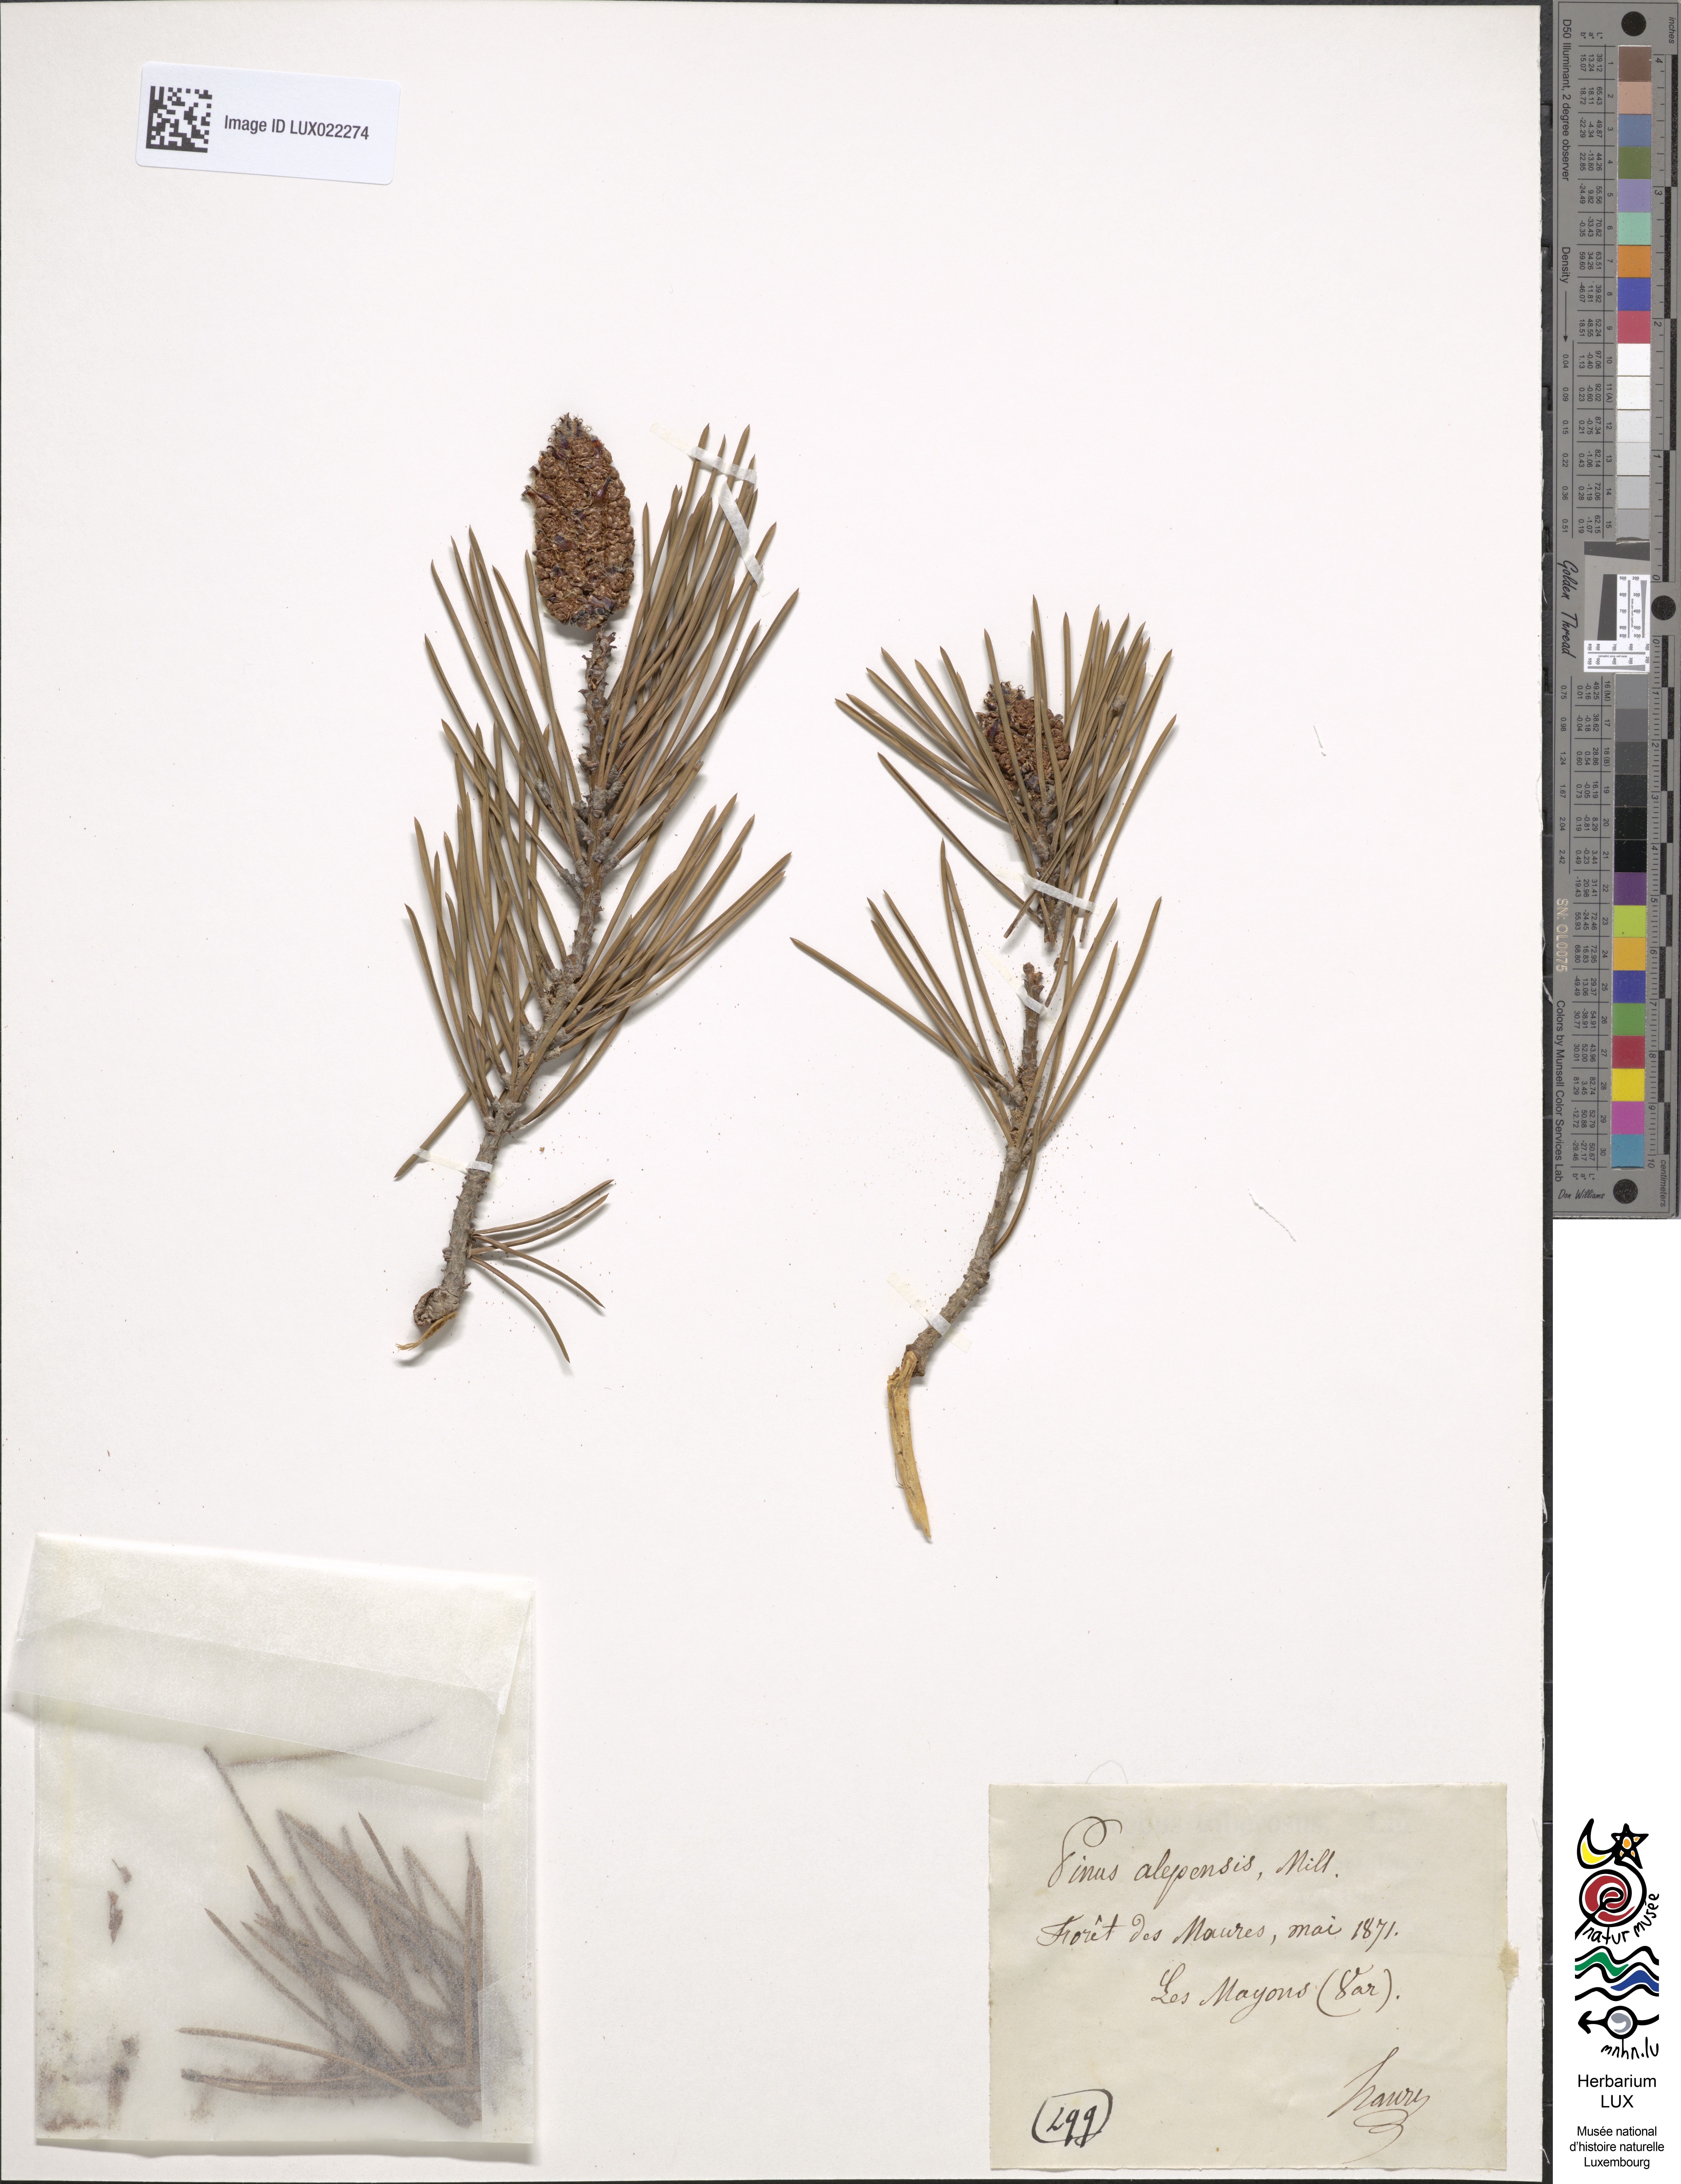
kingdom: Plantae
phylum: Tracheophyta
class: Pinopsida
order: Pinales
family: Pinaceae
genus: Pinus
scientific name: Pinus mugo
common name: Mugo pine
